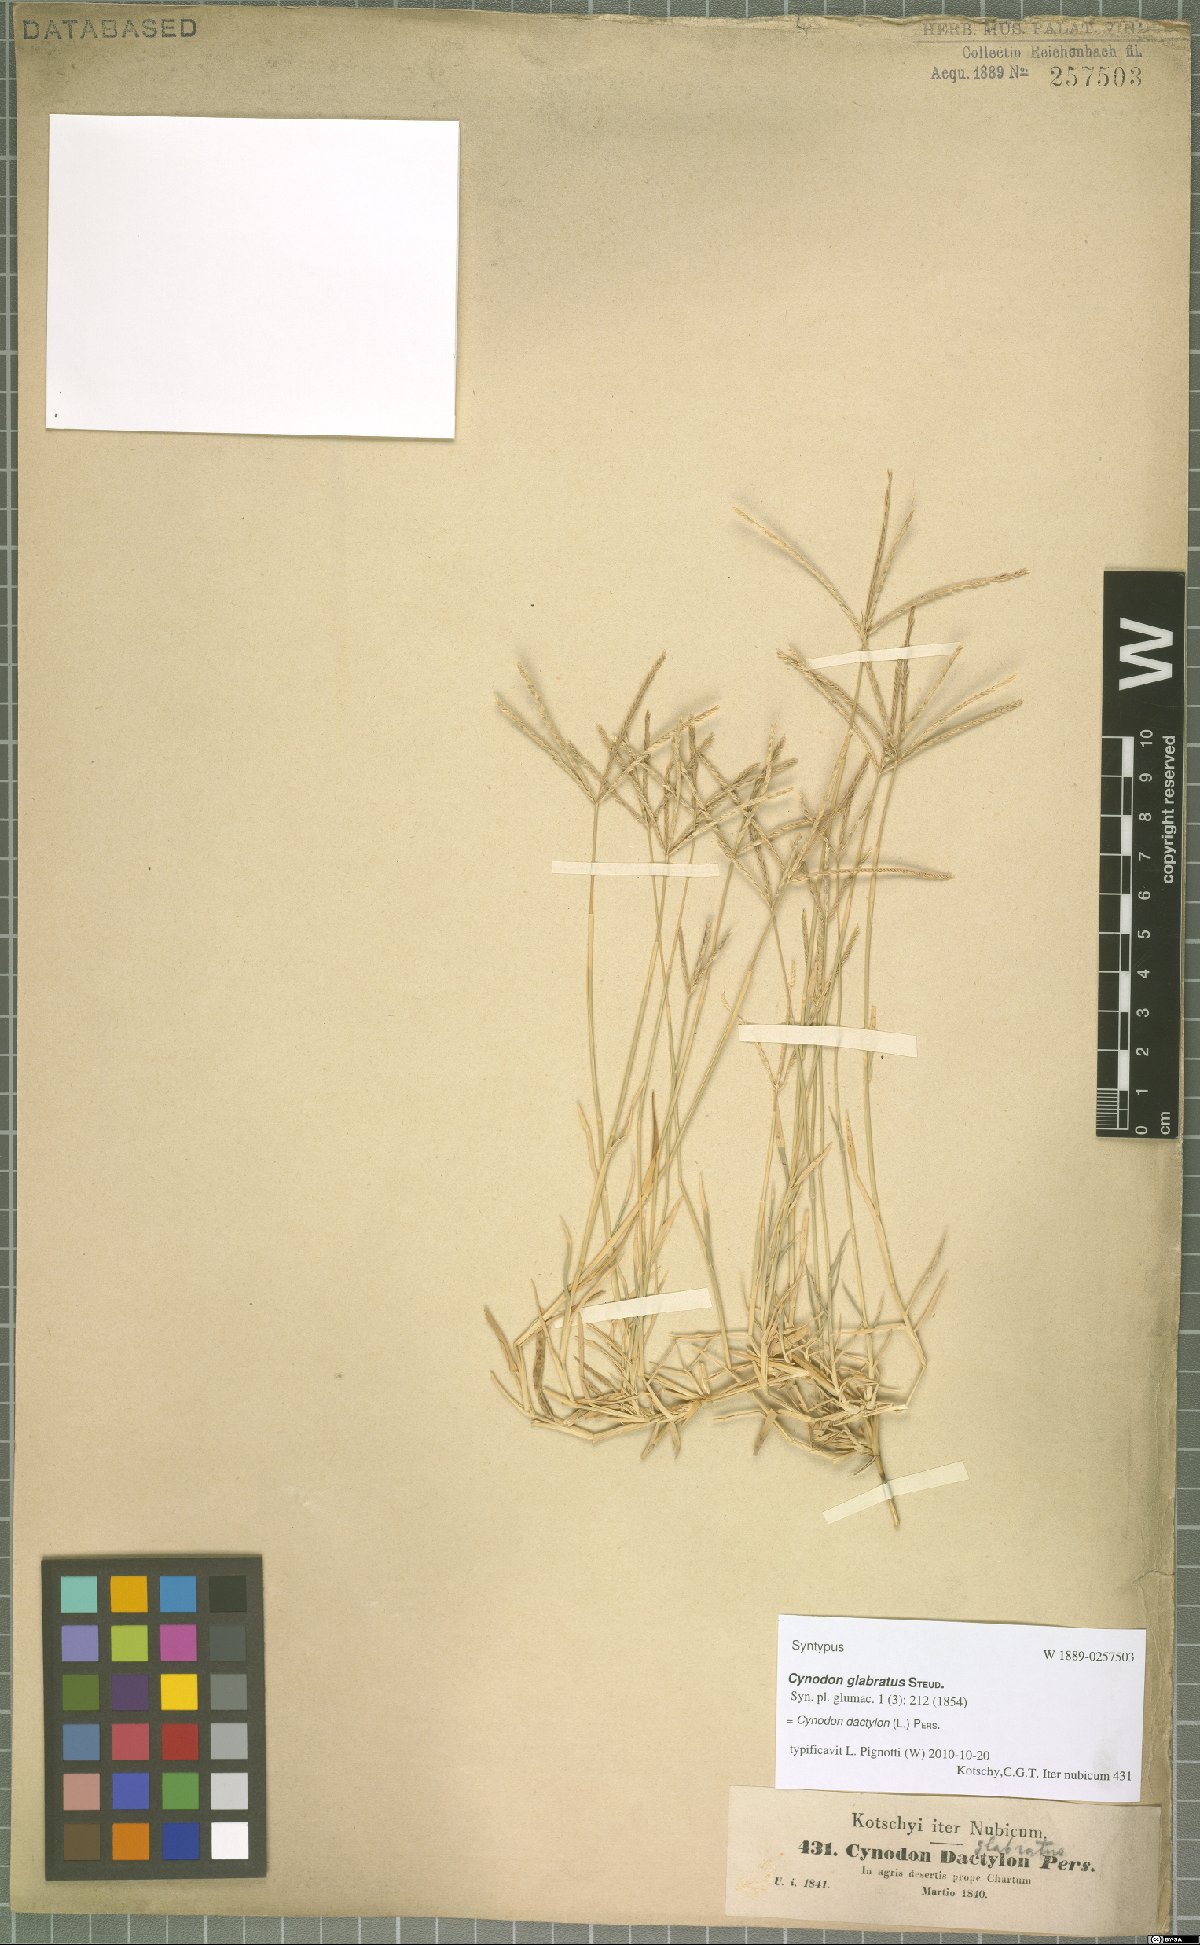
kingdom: Plantae
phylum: Tracheophyta
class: Liliopsida
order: Poales
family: Poaceae
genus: Cynodon
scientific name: Cynodon dactylon
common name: Bermuda grass
